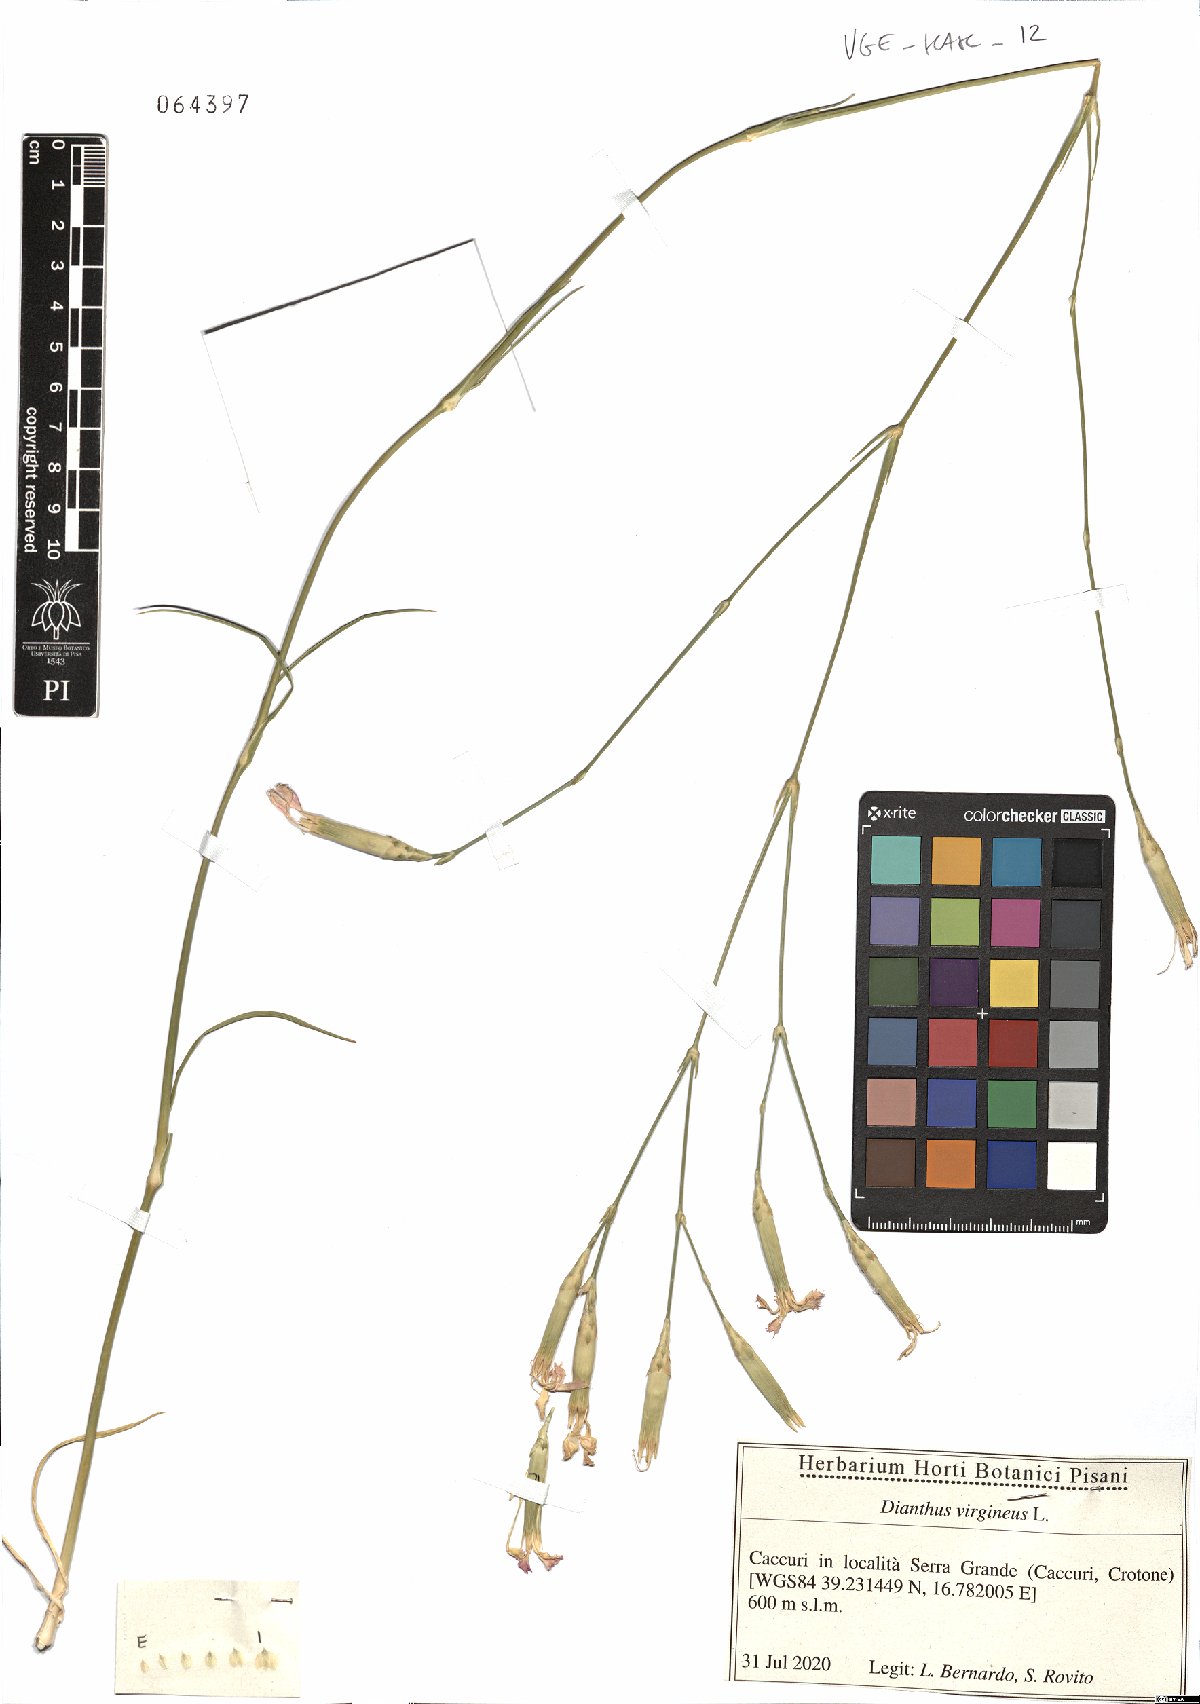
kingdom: Plantae
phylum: Tracheophyta
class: Magnoliopsida
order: Caryophyllales
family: Caryophyllaceae
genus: Dianthus
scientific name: Dianthus virgineus
